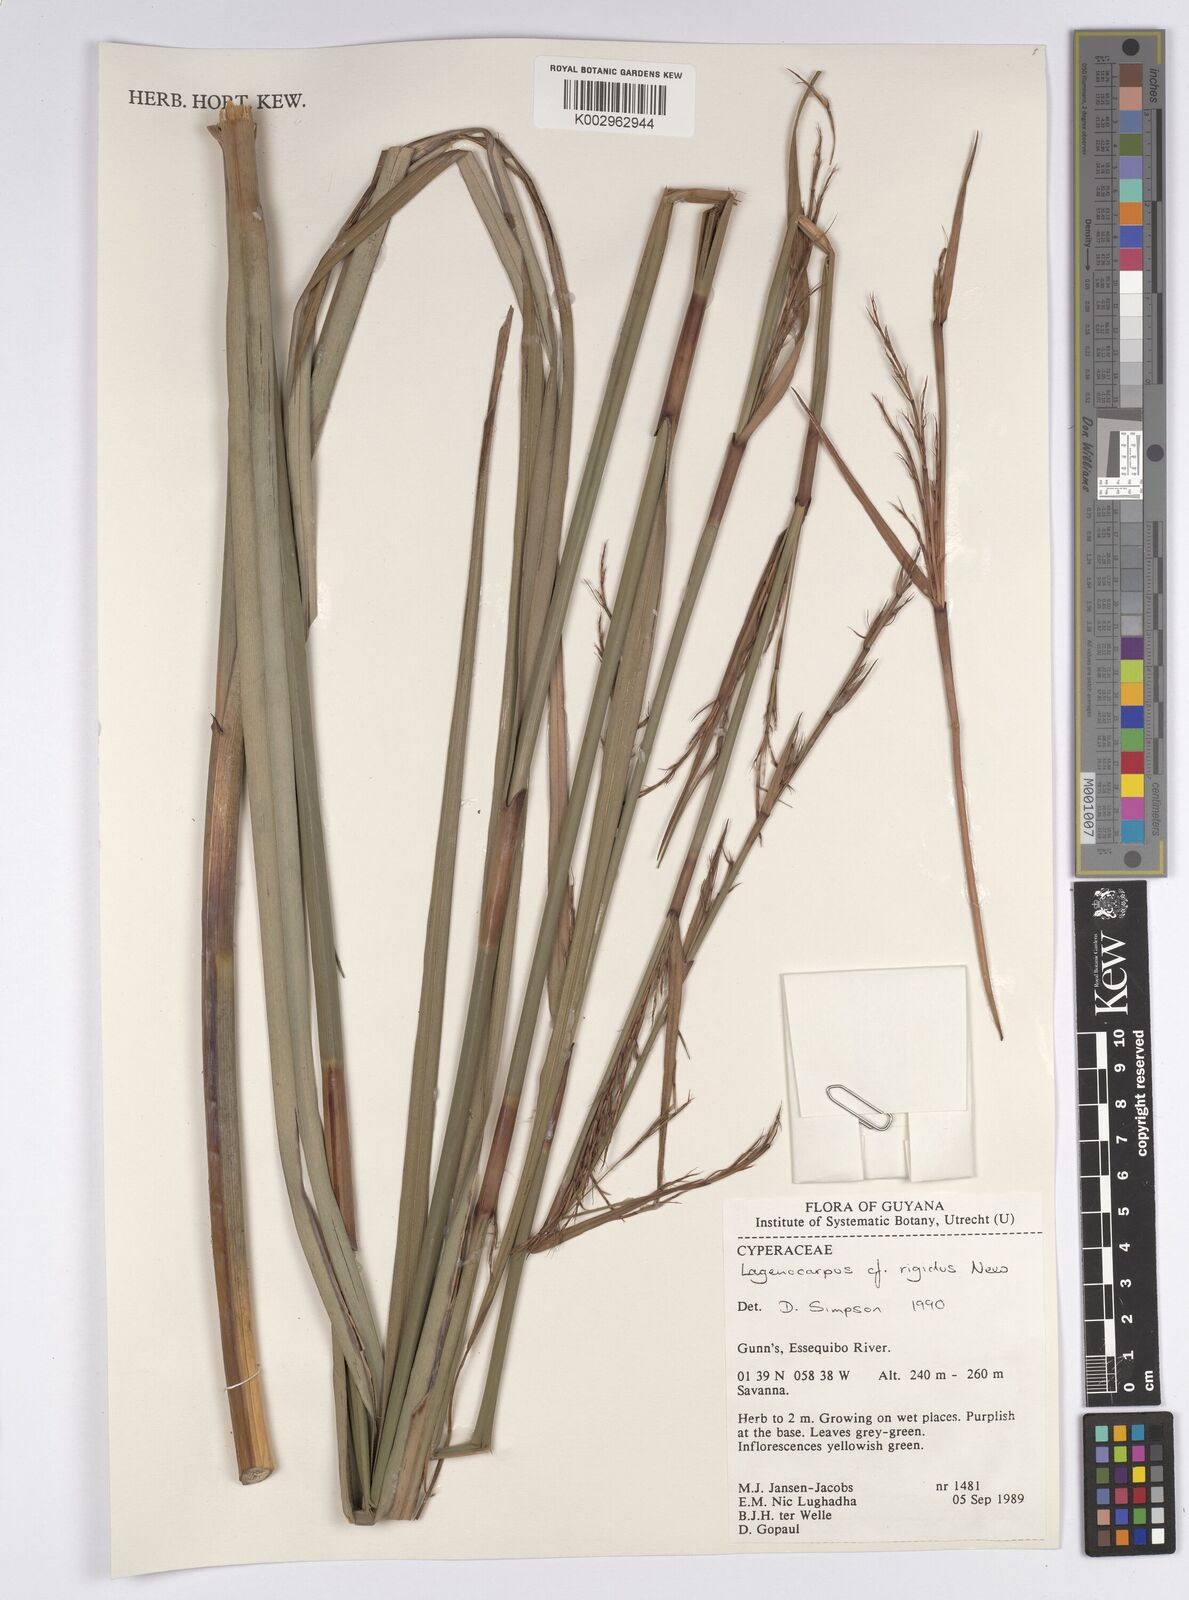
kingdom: Plantae
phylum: Tracheophyta
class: Liliopsida
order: Poales
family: Cyperaceae
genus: Lagenocarpus
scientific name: Lagenocarpus rigidus
